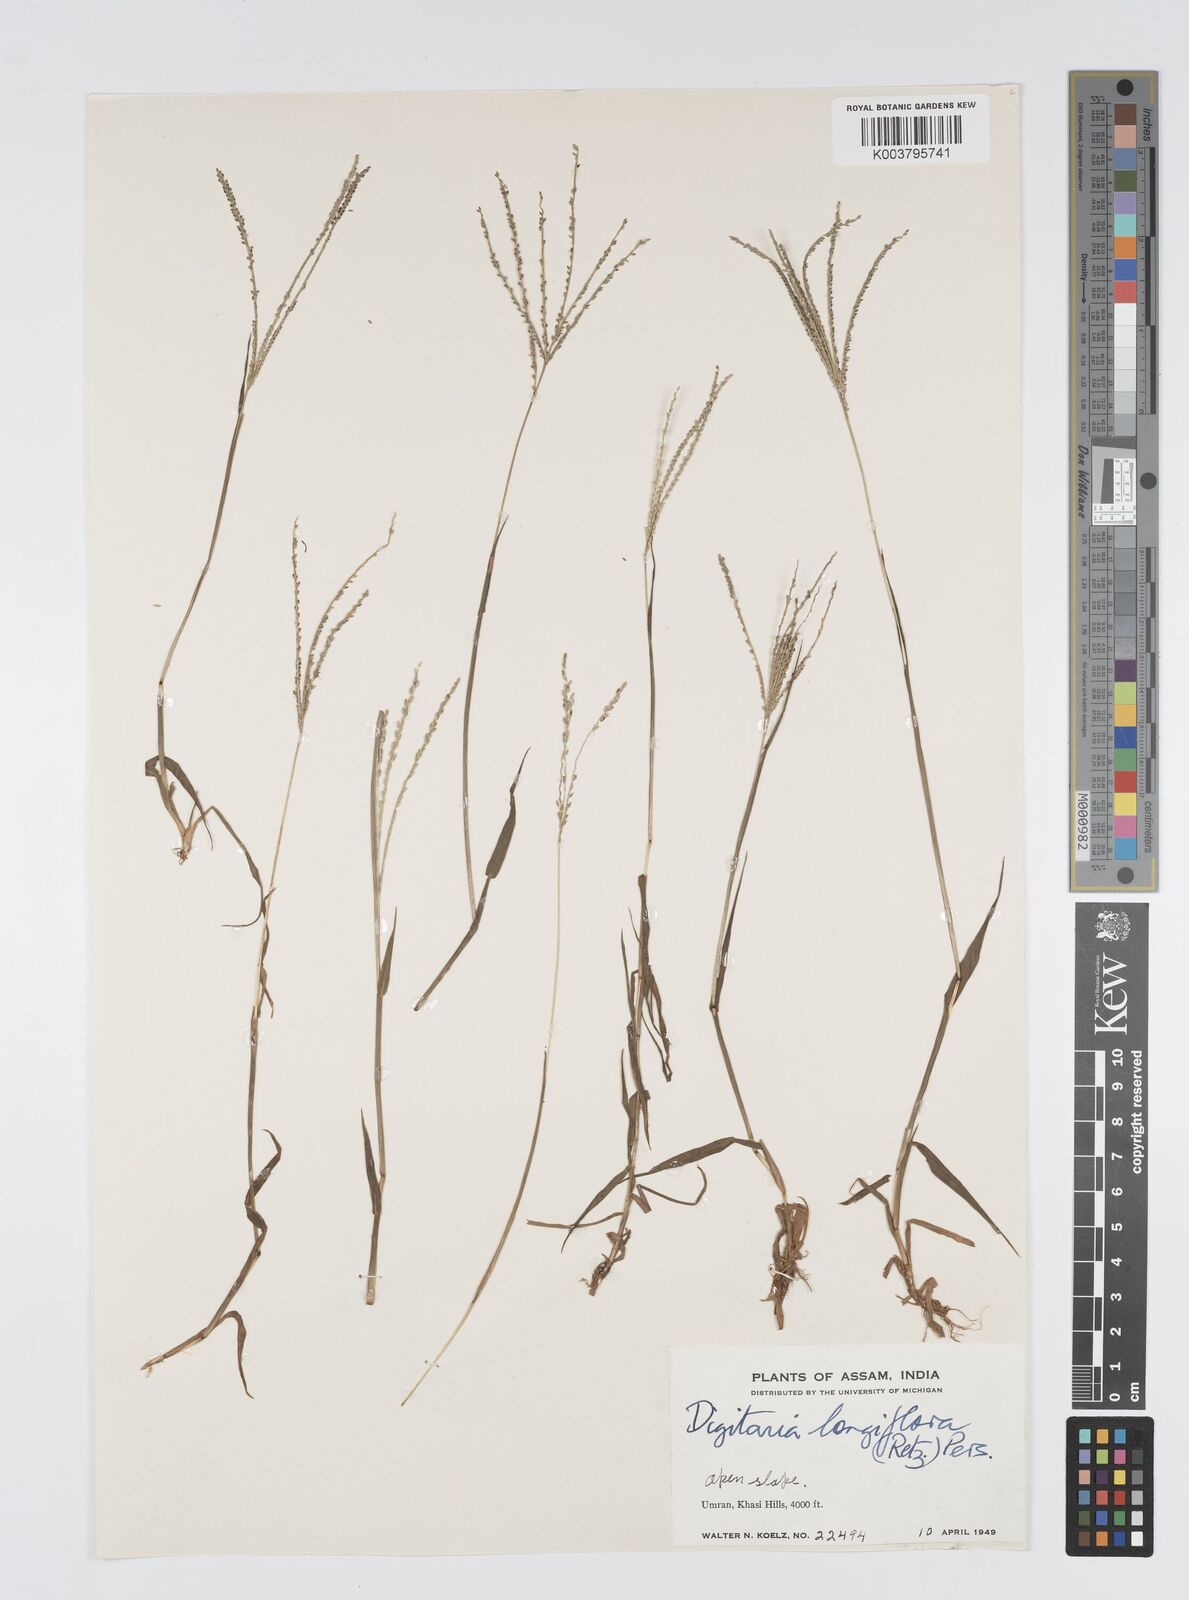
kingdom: Plantae
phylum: Tracheophyta
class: Liliopsida
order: Poales
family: Poaceae
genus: Digitaria
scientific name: Digitaria violascens
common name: Violet crabgrass
